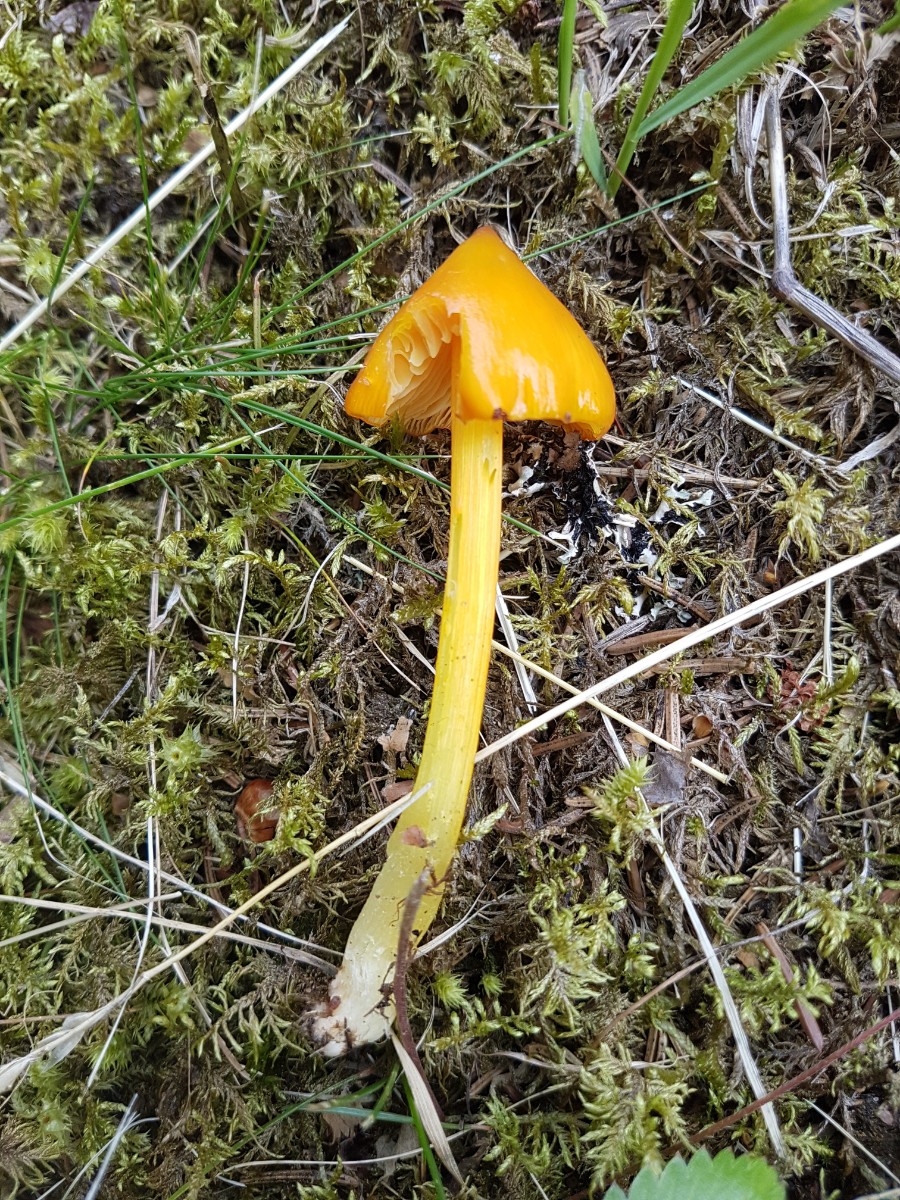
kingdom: Fungi
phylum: Basidiomycota
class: Agaricomycetes
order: Agaricales
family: Hygrophoraceae
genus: Hygrocybe
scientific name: Hygrocybe acutoconica
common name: spidspuklet vokshat
